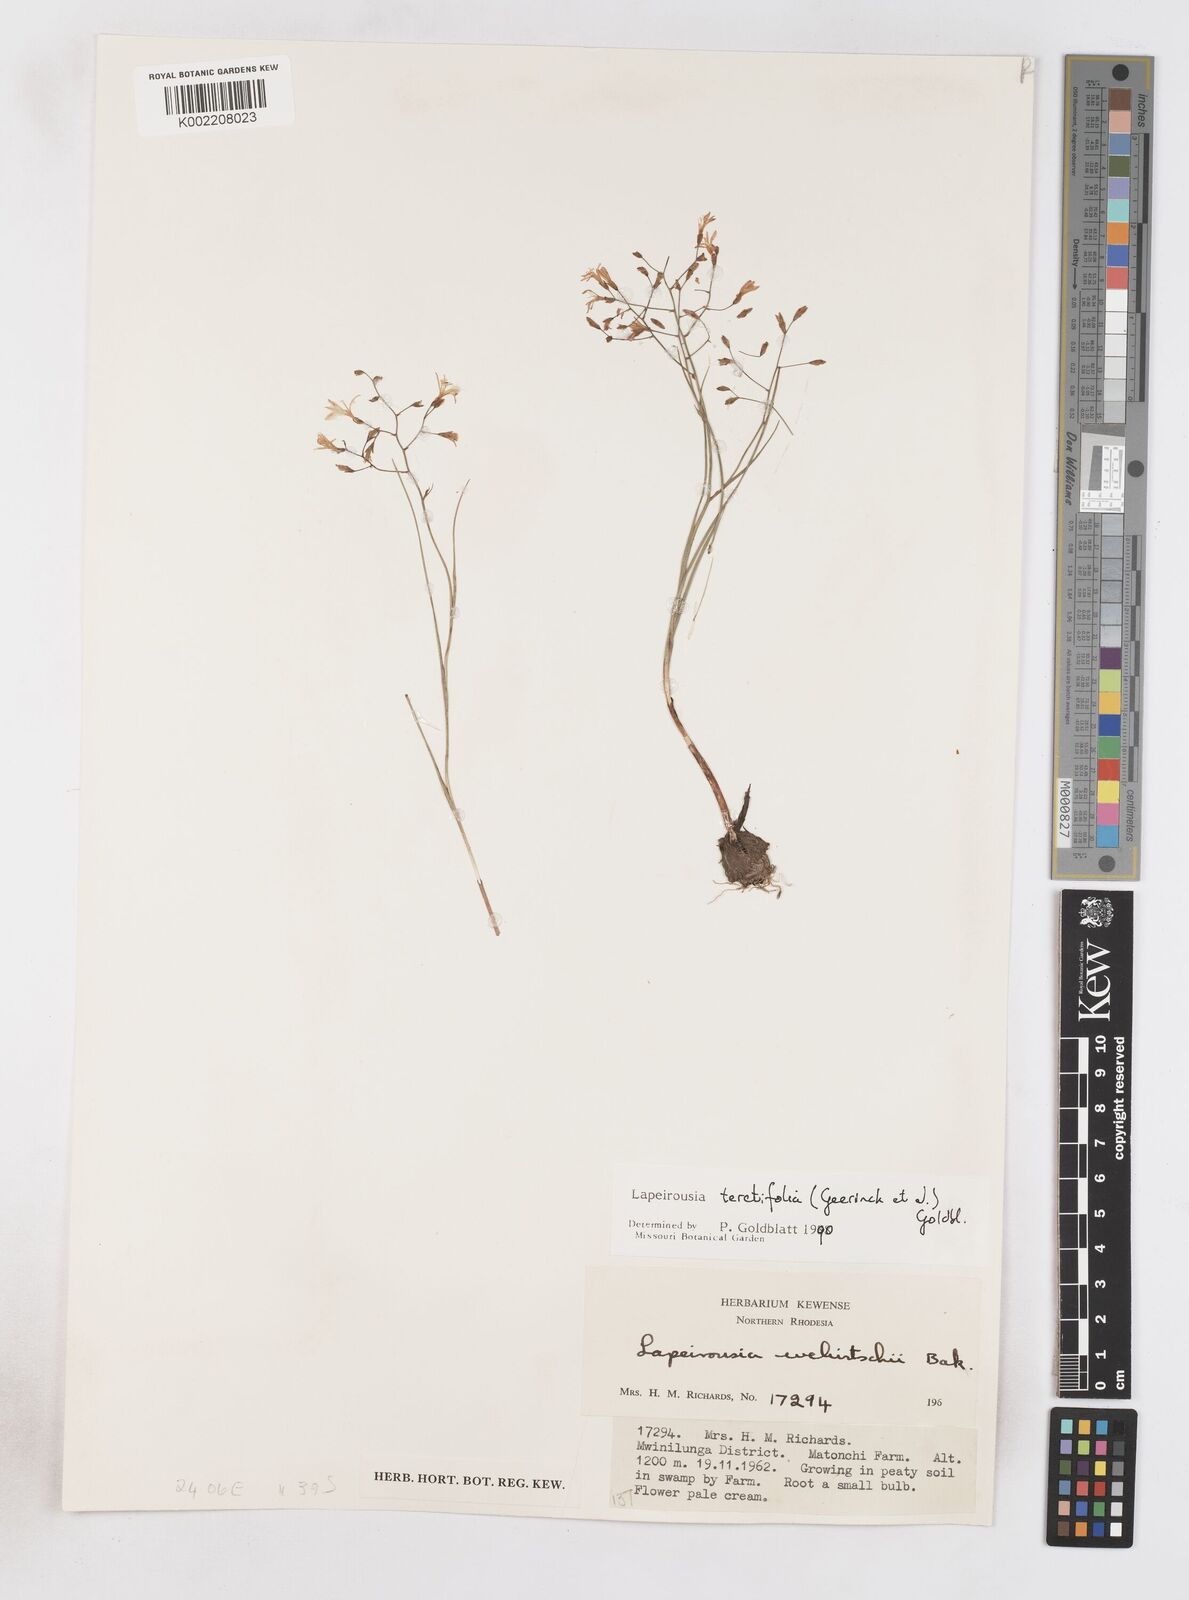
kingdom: Plantae
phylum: Tracheophyta
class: Liliopsida
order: Asparagales
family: Iridaceae
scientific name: Iridaceae
